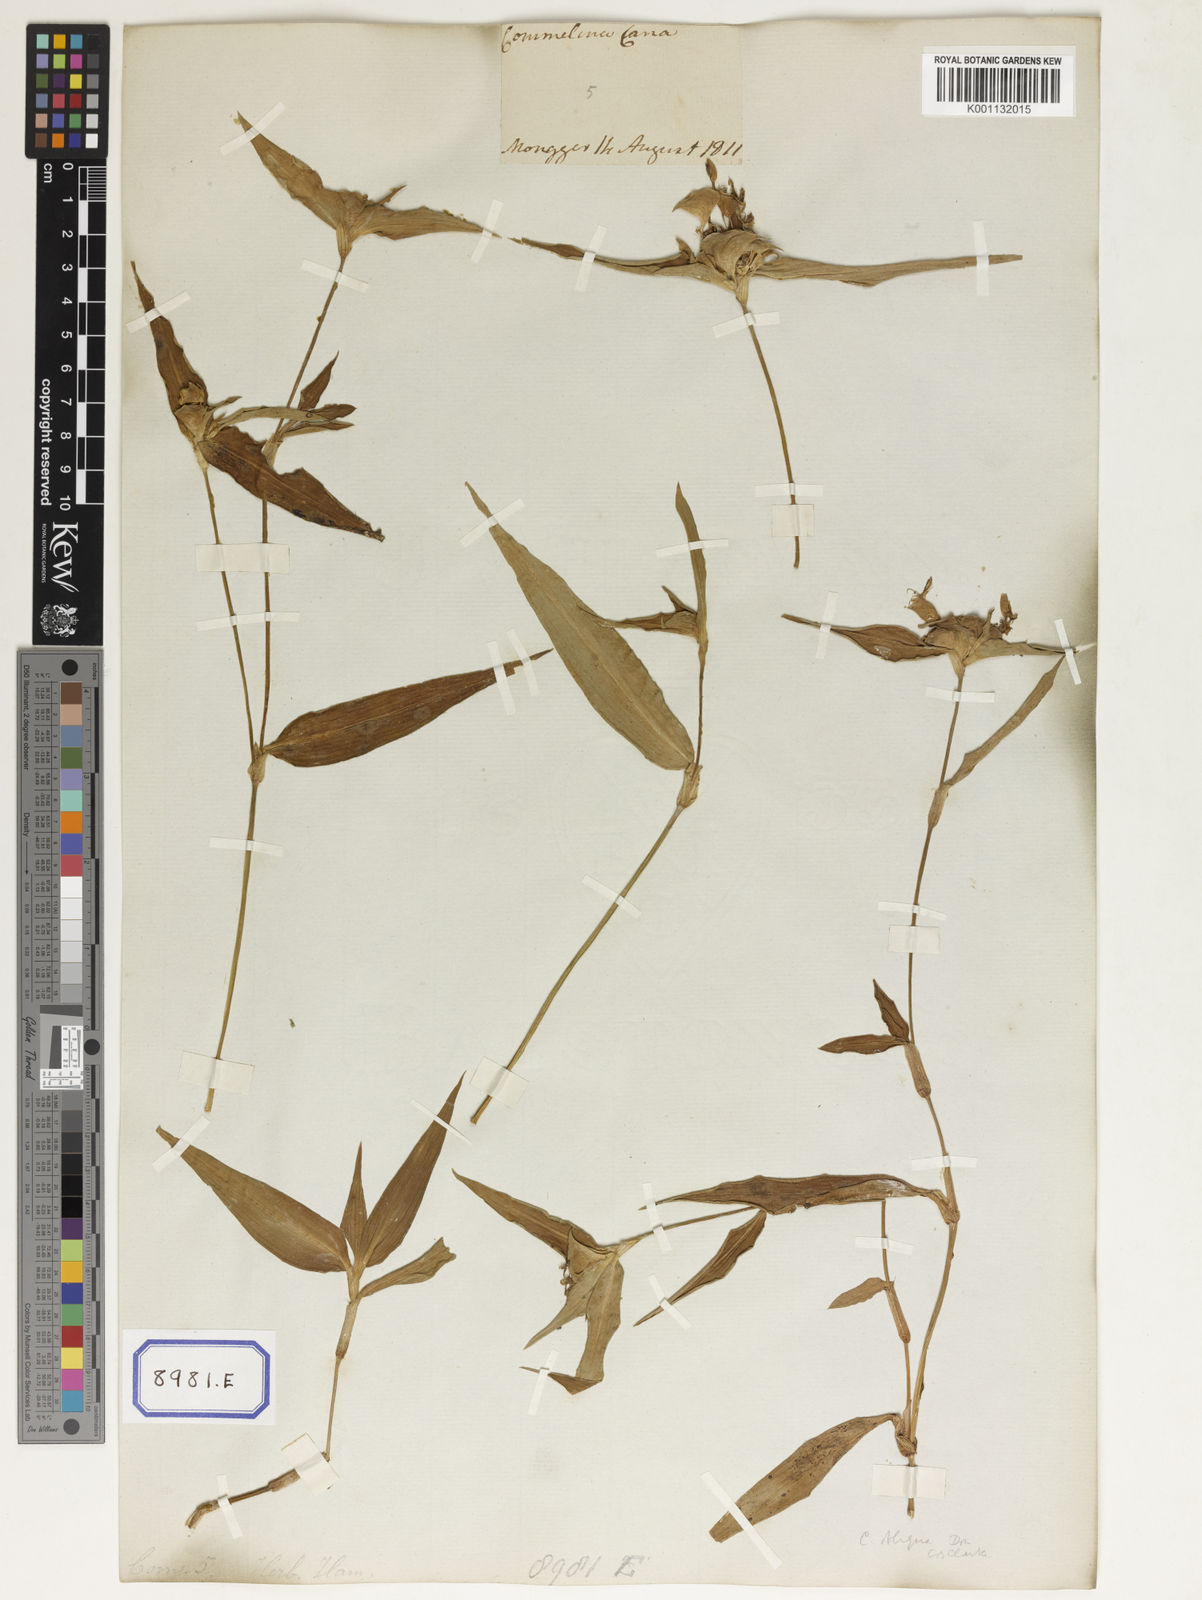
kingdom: Plantae
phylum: Tracheophyta
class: Liliopsida
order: Commelinales
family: Commelinaceae
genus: Commelina
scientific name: Commelina undulata
